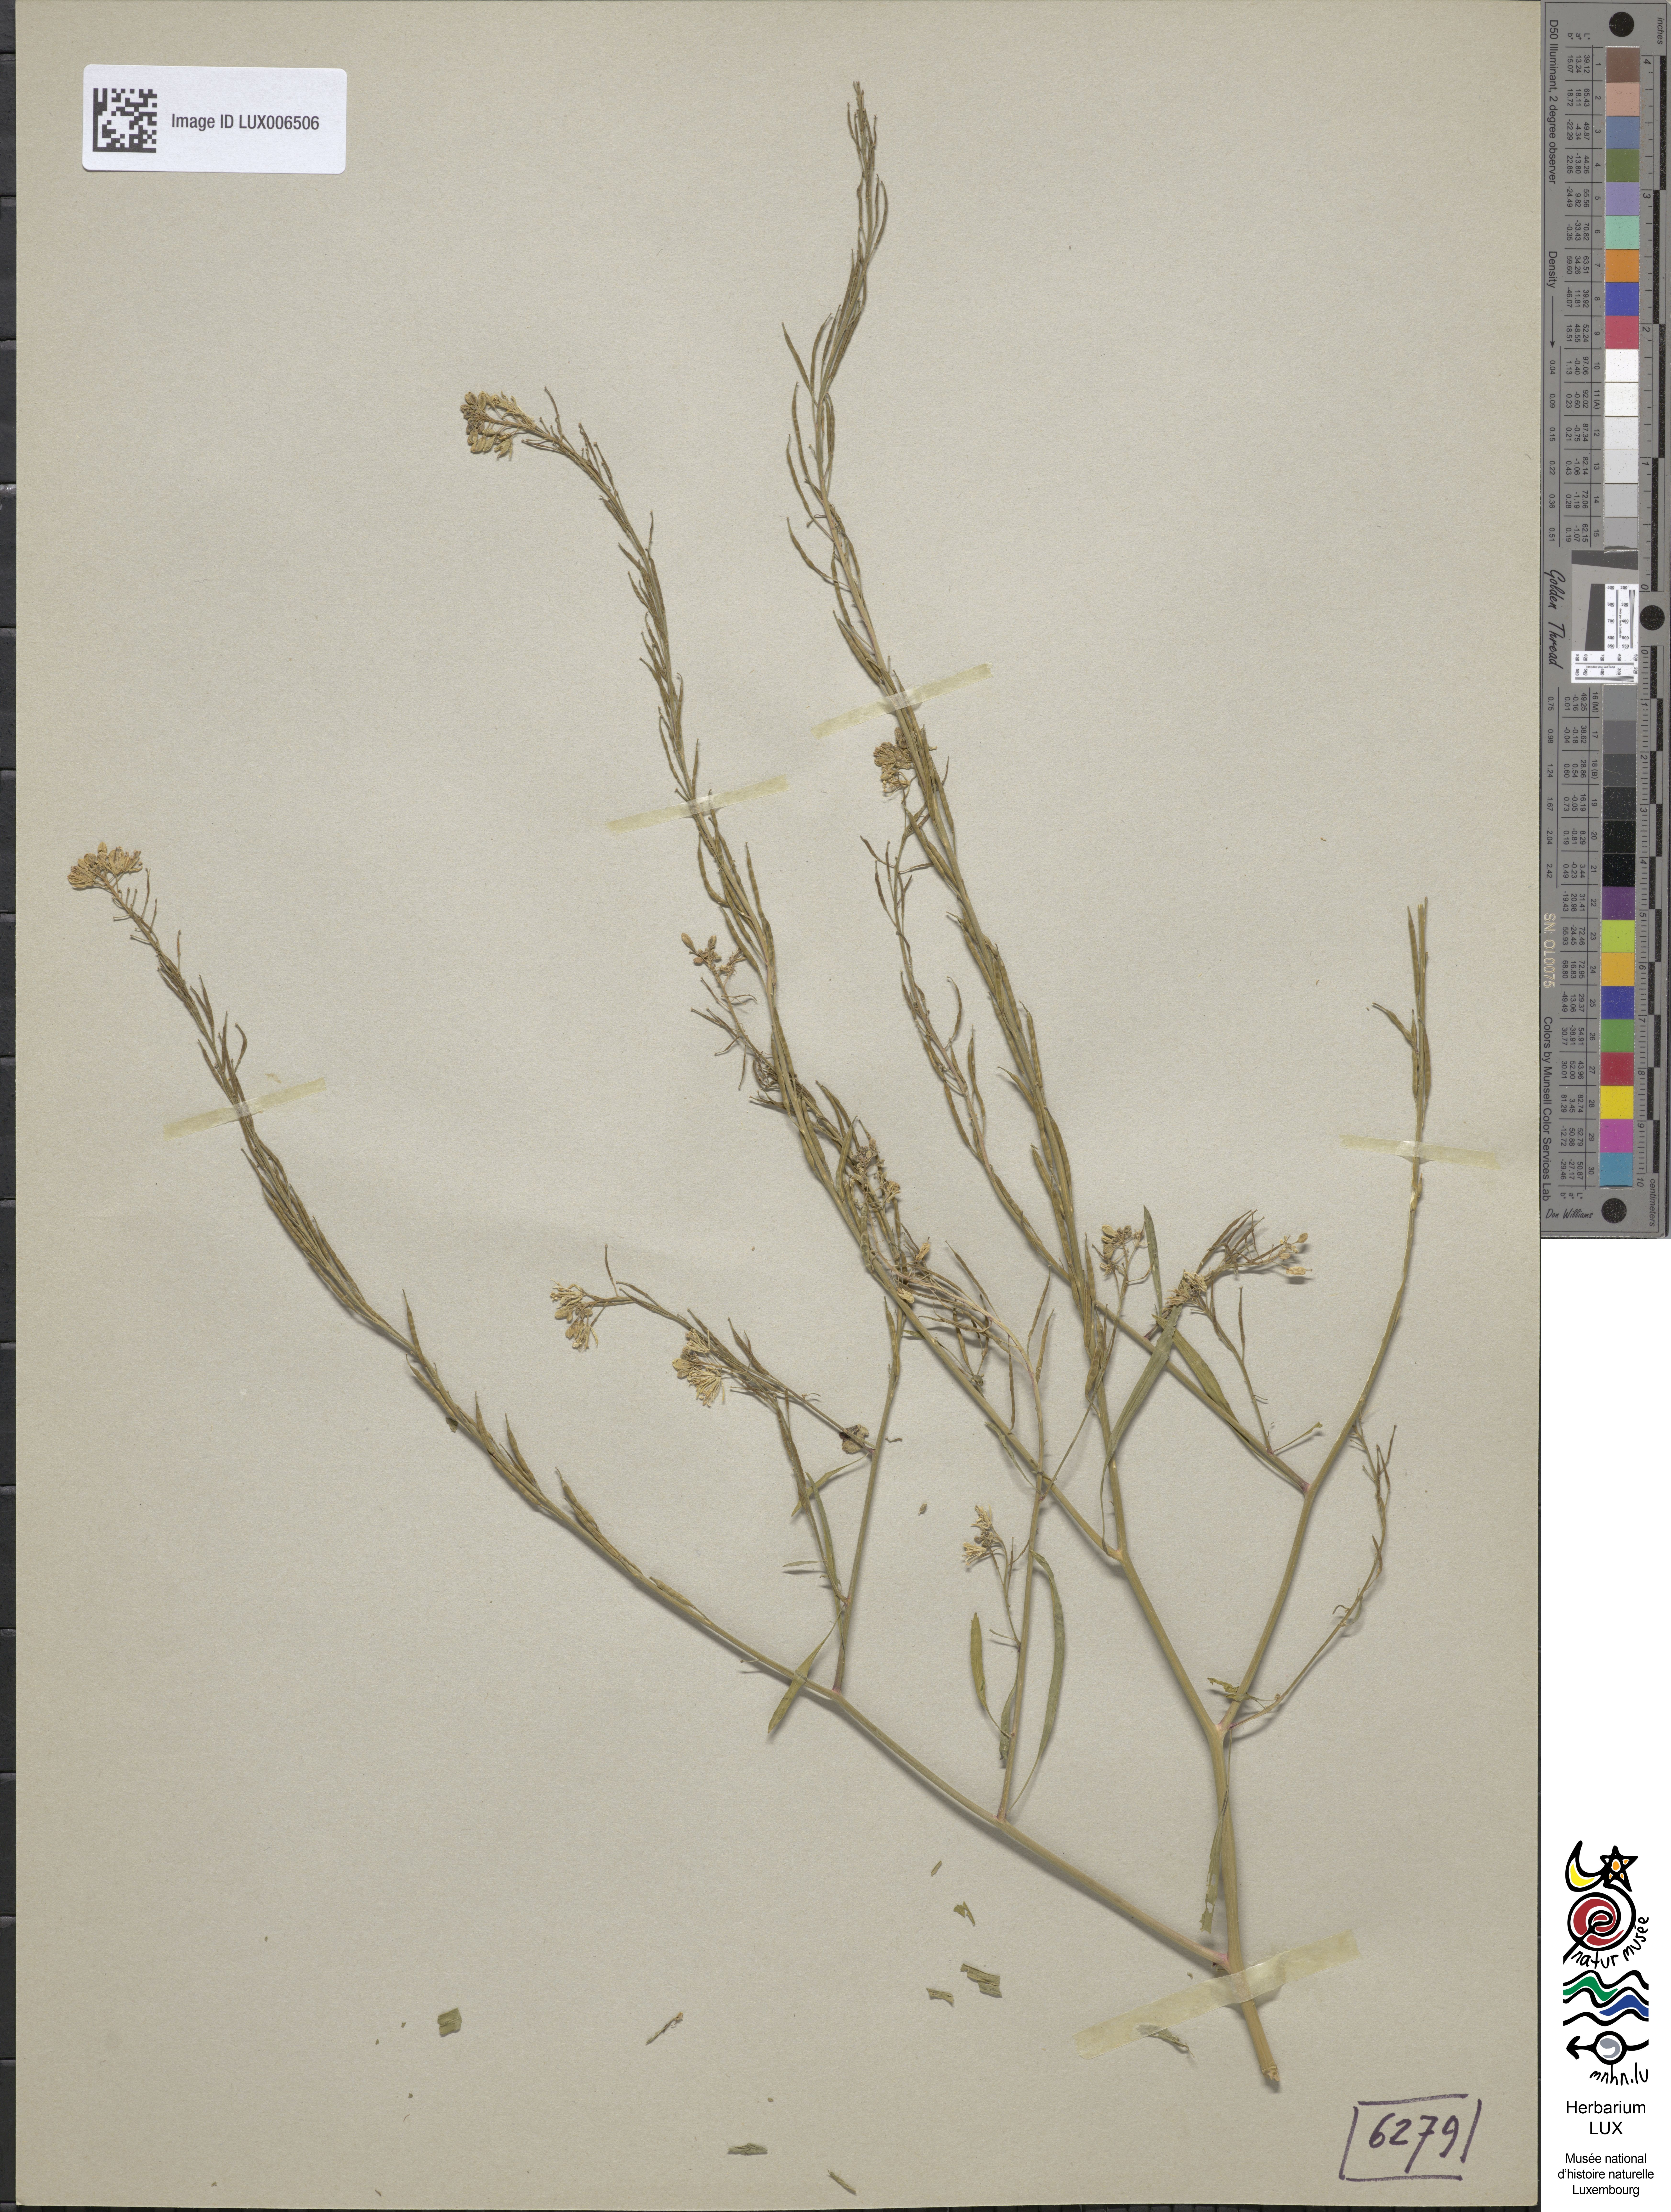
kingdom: Plantae
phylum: Tracheophyta
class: Magnoliopsida
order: Brassicales
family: Brassicaceae
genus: Brassica
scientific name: Brassica nigra
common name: Black mustard
